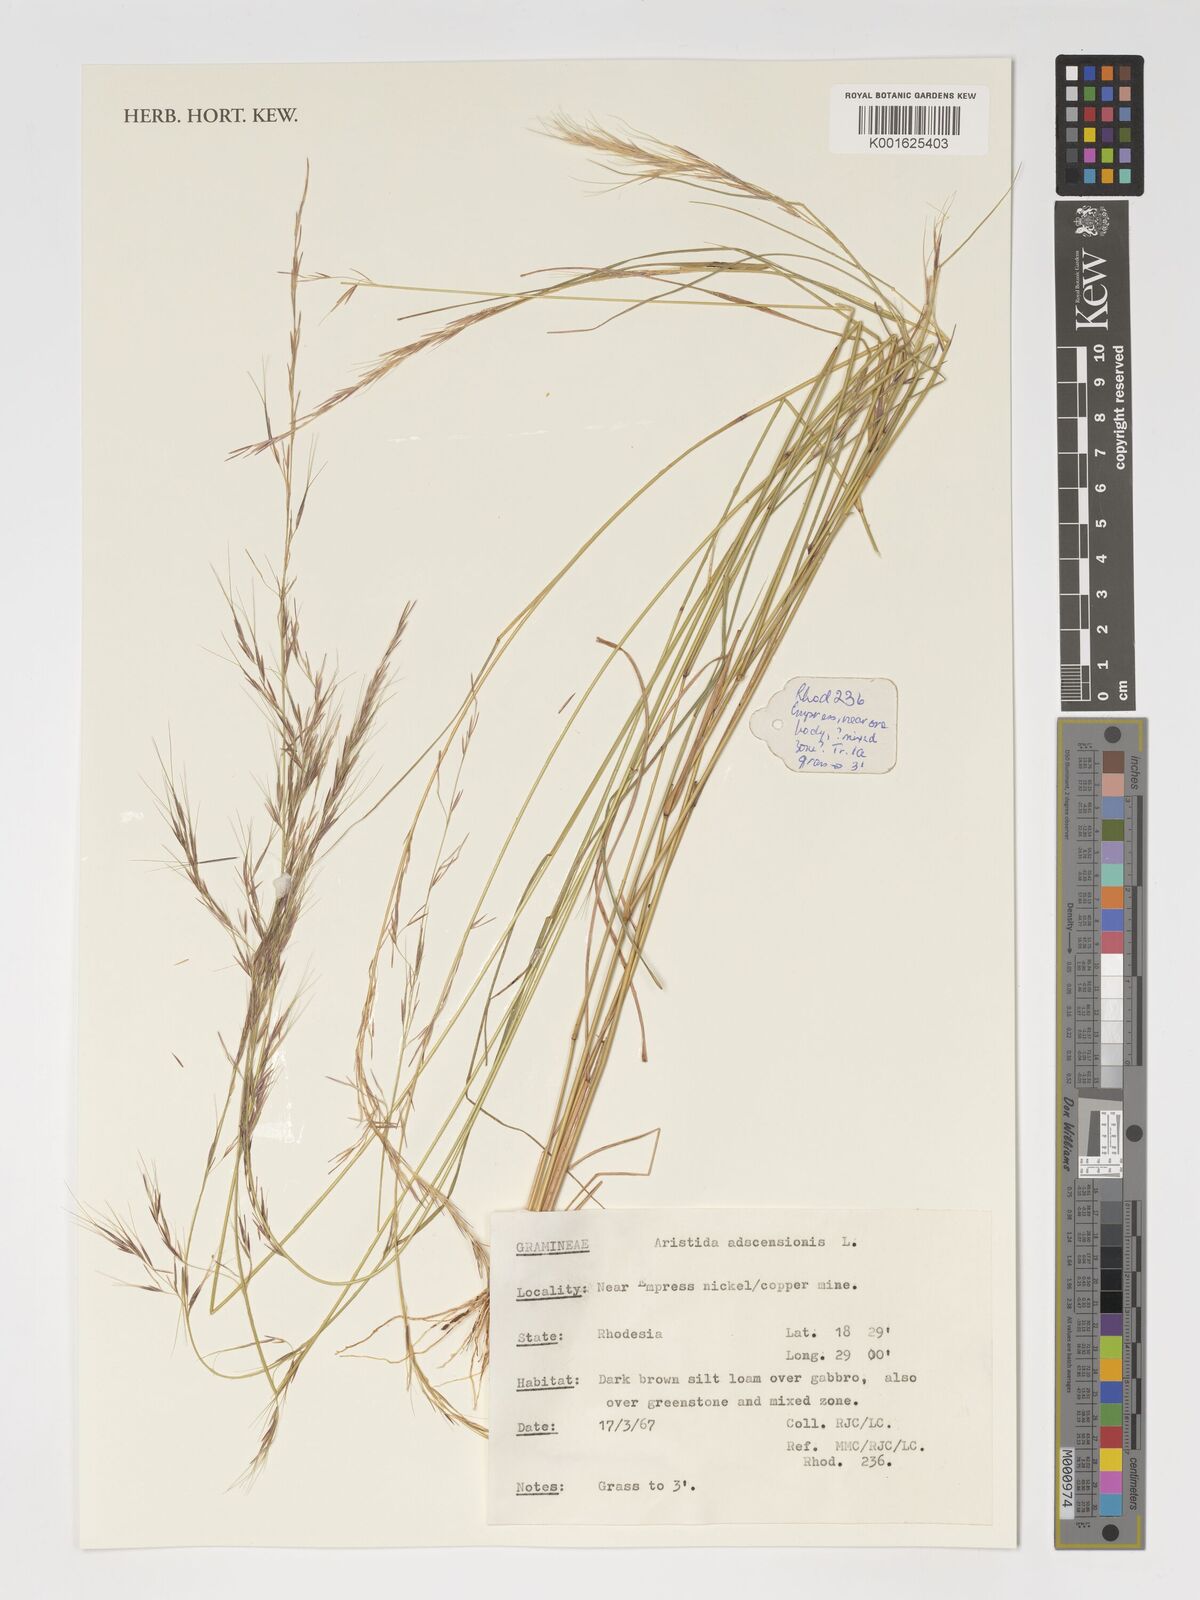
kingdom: Plantae
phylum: Tracheophyta
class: Liliopsida
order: Poales
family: Poaceae
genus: Aristida
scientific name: Aristida adscensionis
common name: Sixweeks threeawn
